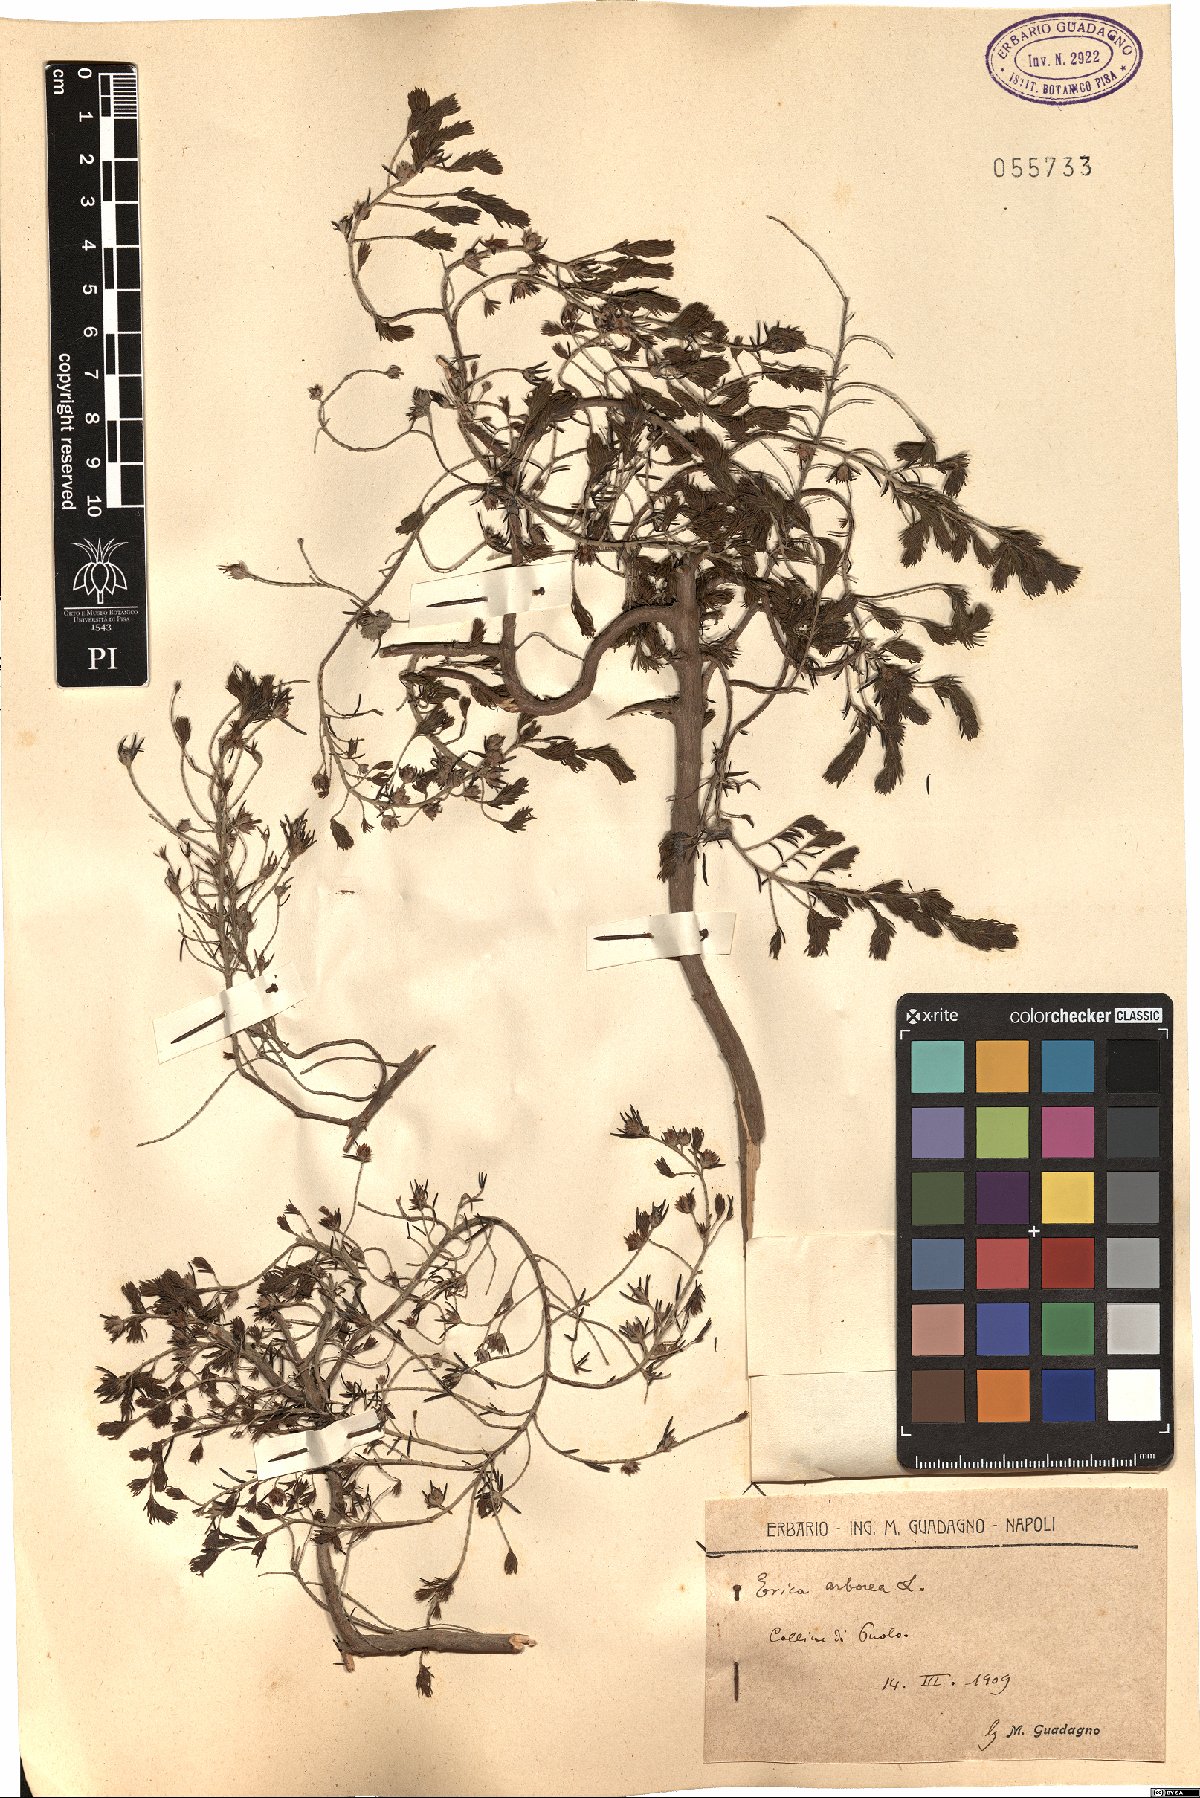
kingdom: Plantae
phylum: Tracheophyta
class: Magnoliopsida
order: Ericales
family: Ericaceae
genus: Erica
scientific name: Erica arborea
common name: Tree heath
